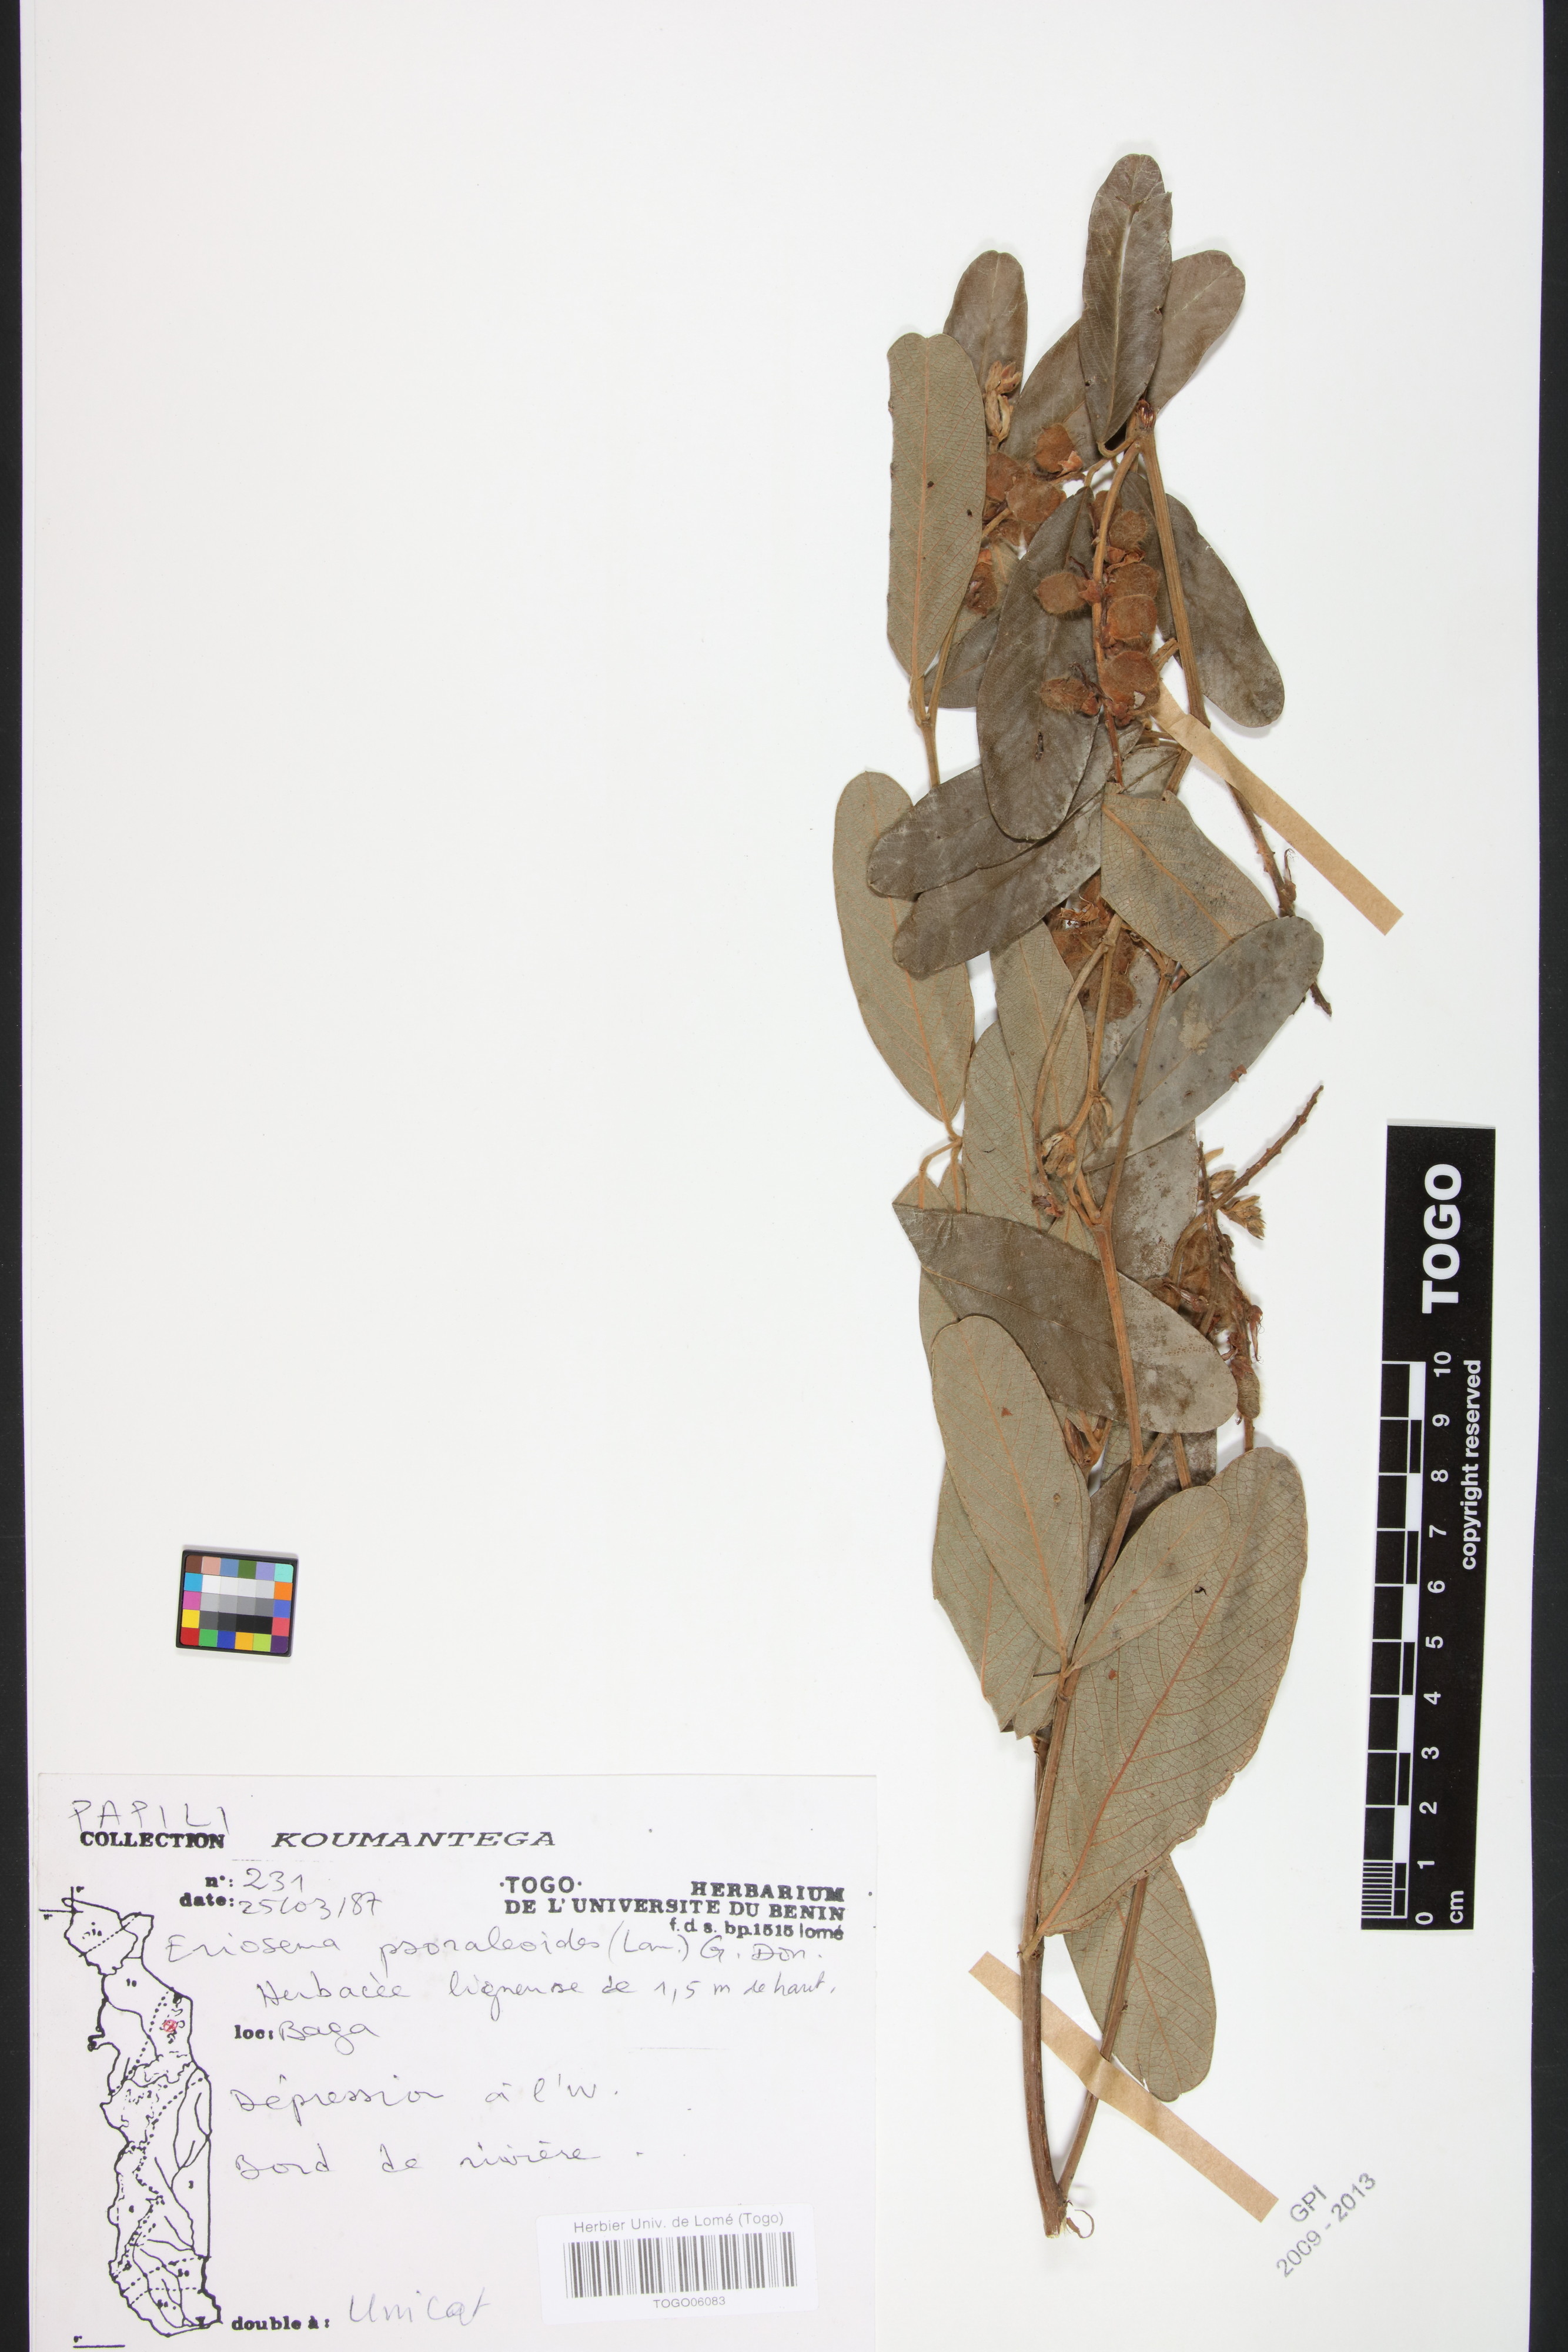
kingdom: Plantae
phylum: Tracheophyta
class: Magnoliopsida
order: Fabales
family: Fabaceae
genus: Eriosema
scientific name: Eriosema psoraleoides
